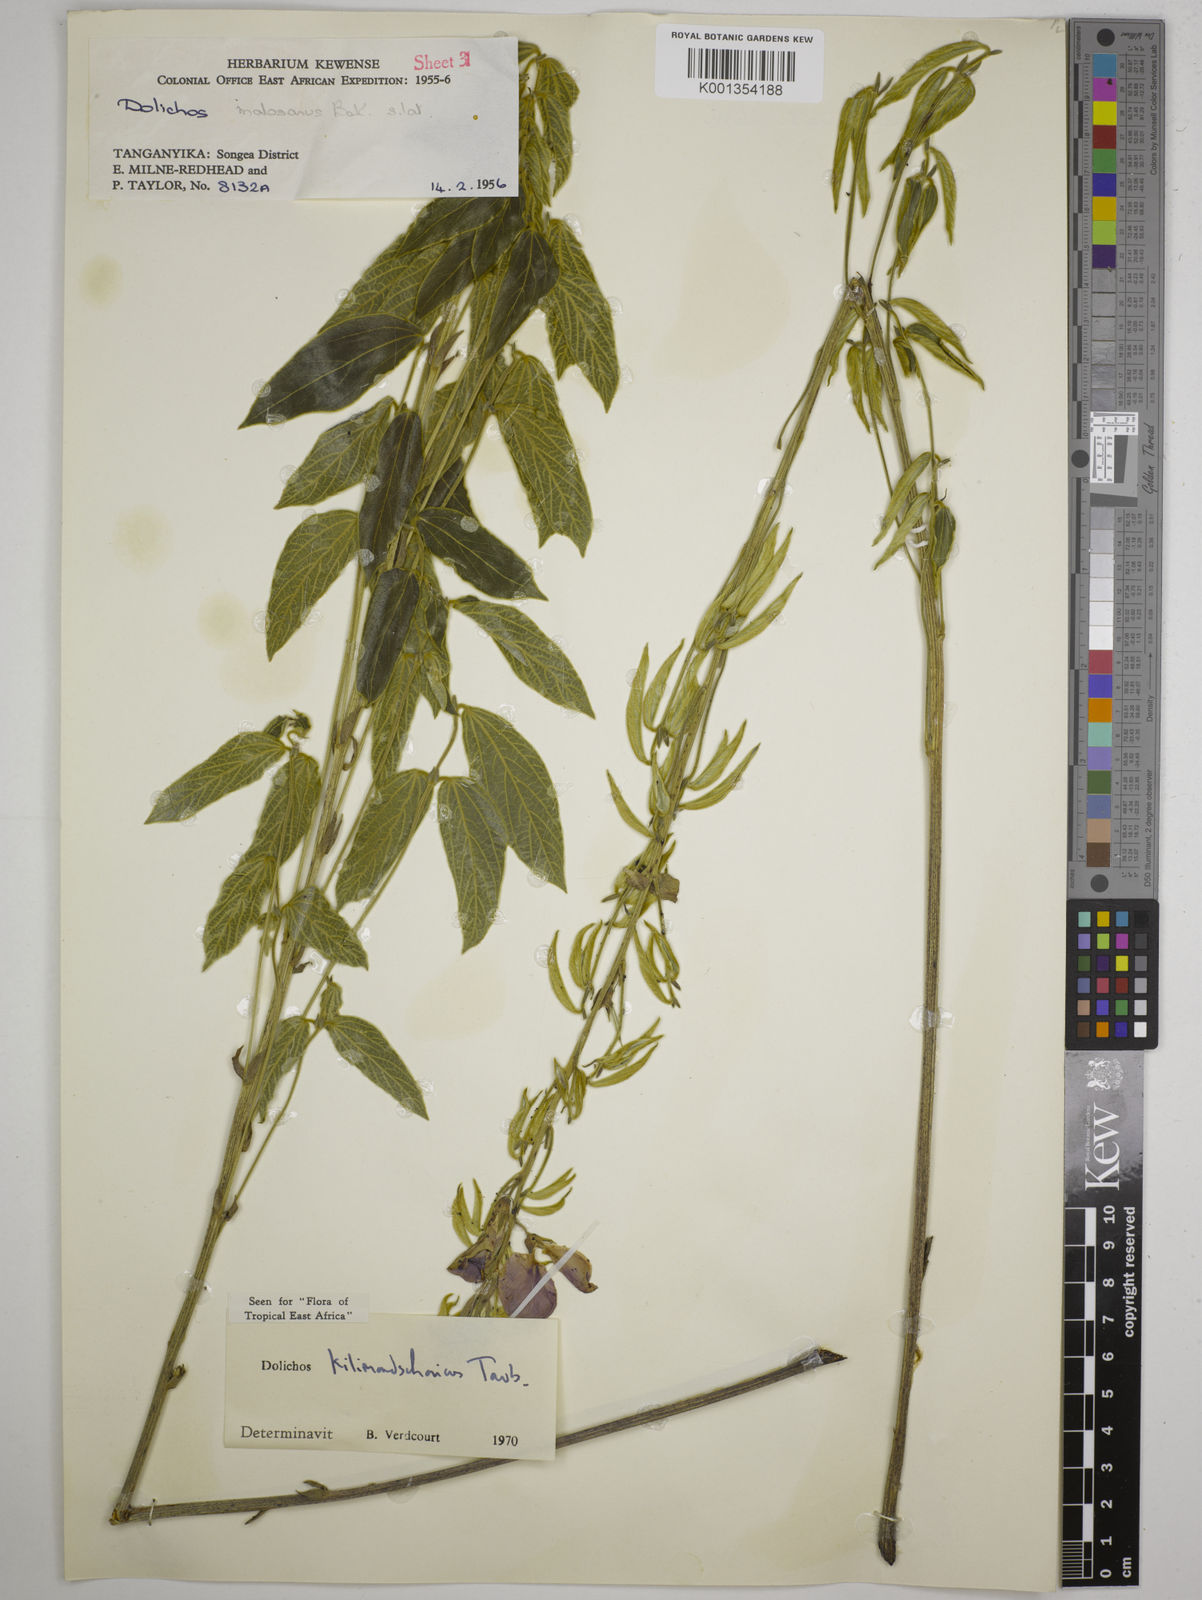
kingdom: Plantae
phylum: Tracheophyta
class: Magnoliopsida
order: Fabales
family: Fabaceae
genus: Dolichos
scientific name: Dolichos kilimandscharicus
